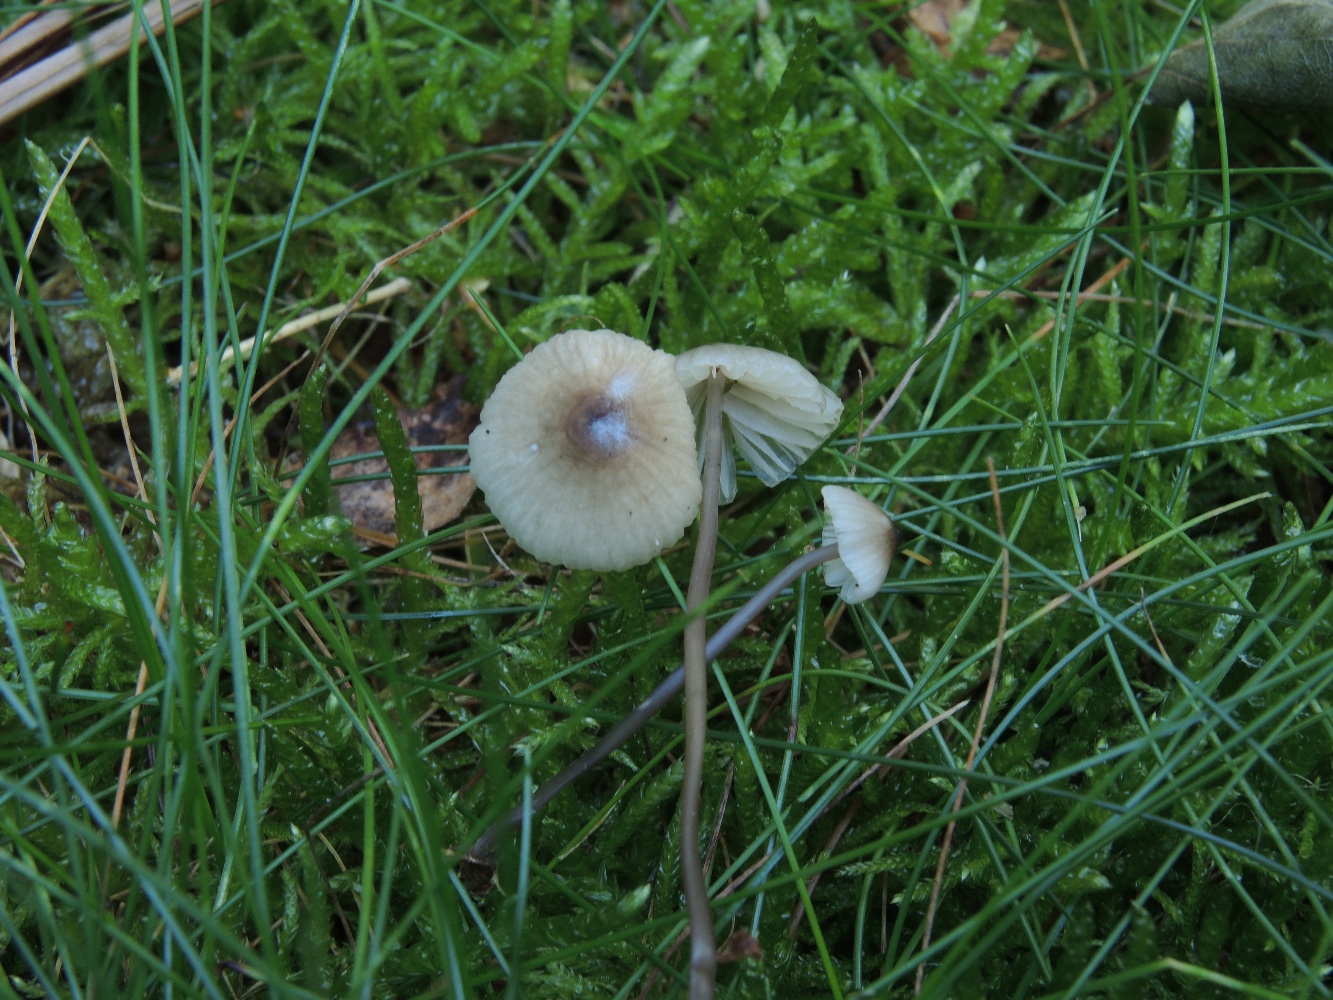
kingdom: Fungi
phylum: Basidiomycota
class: Agaricomycetes
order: Agaricales
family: Mycenaceae
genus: Mycena
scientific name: Mycena galopus
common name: hvidmælket huesvamp
